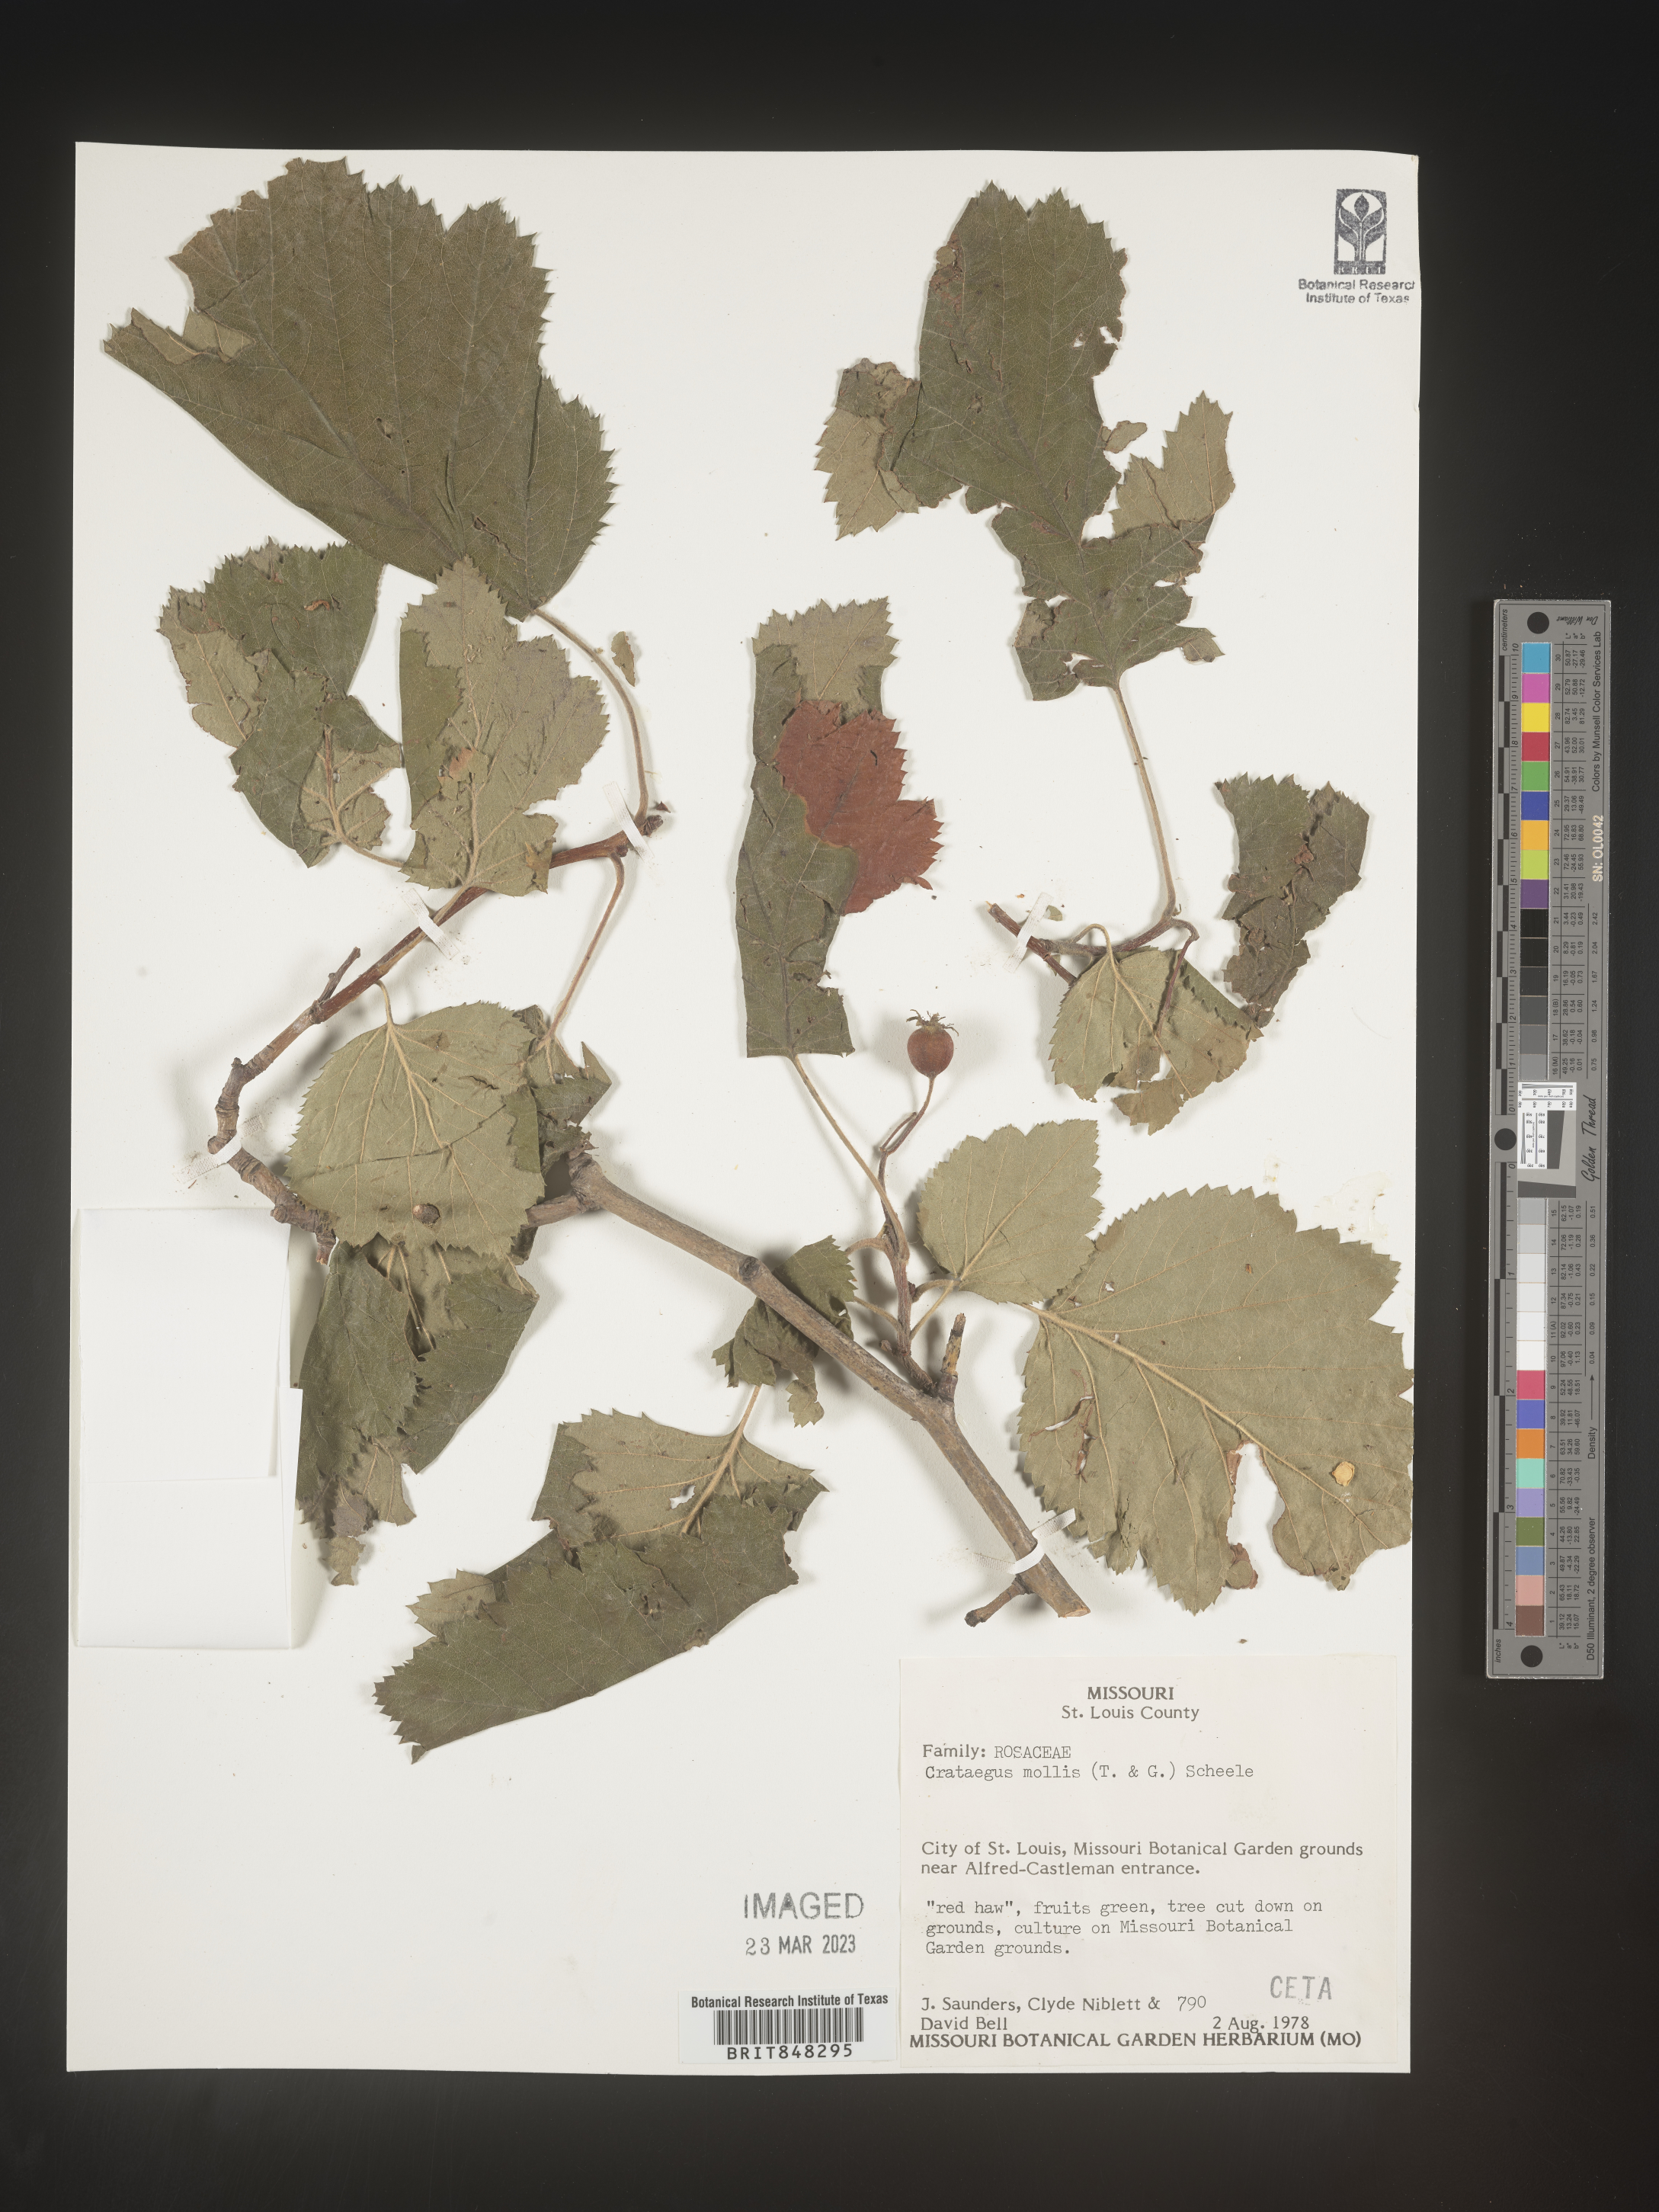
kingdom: Plantae
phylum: Tracheophyta
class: Magnoliopsida
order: Rosales
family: Rosaceae
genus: Crataegus
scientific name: Crataegus mollis
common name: Downy hawthorn
